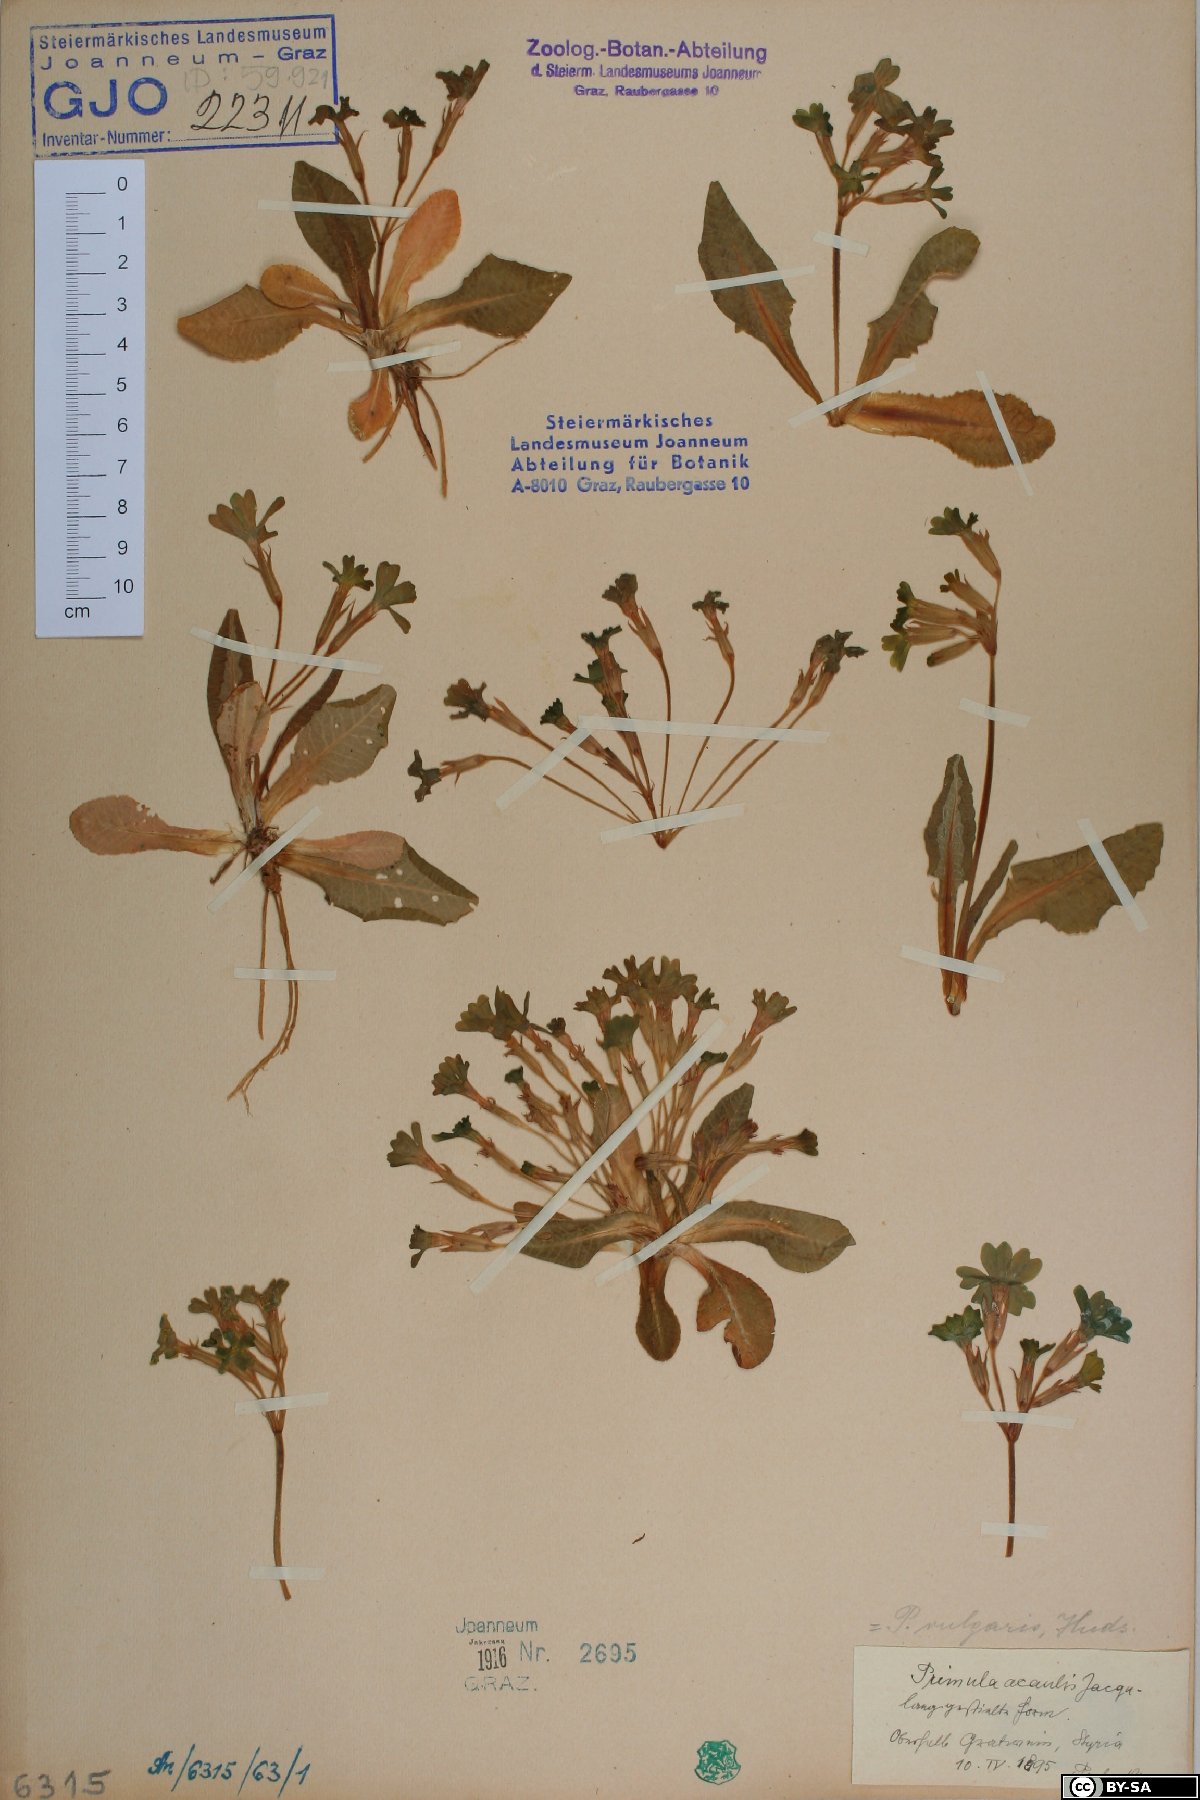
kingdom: Plantae
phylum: Tracheophyta
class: Magnoliopsida
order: Ericales
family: Primulaceae
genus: Primula
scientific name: Primula vulgaris
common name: Primrose
